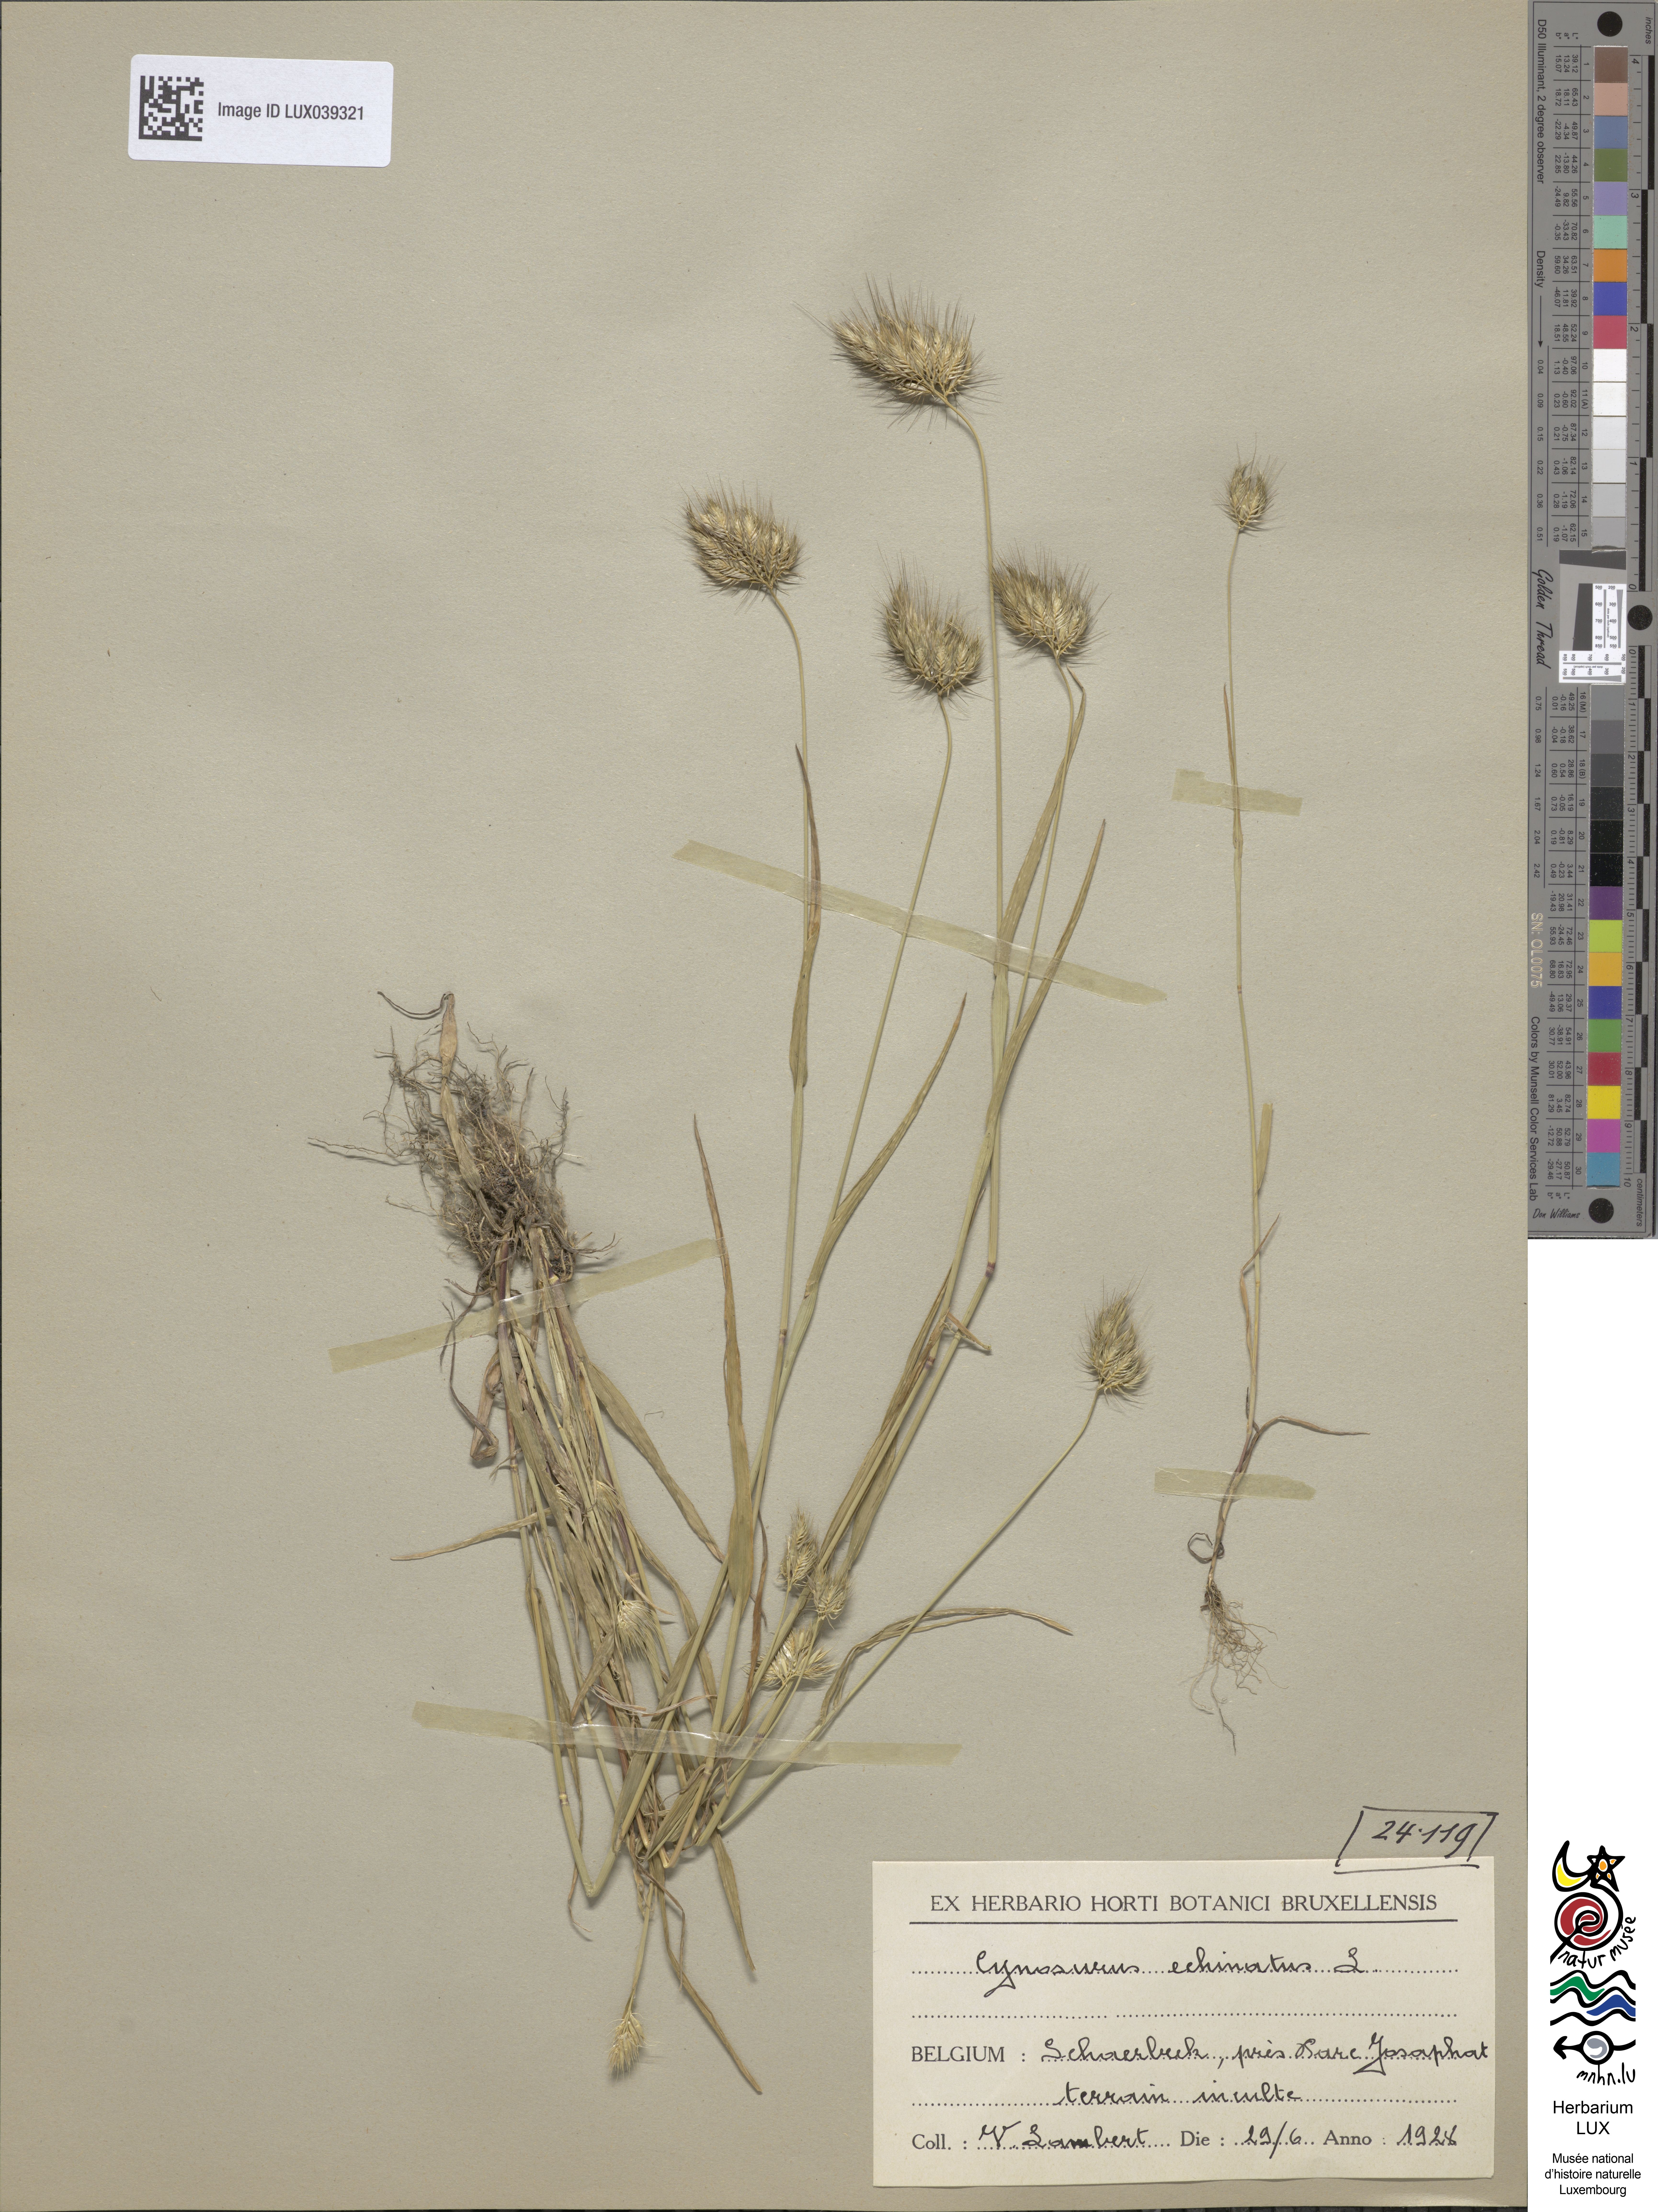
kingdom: Plantae
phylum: Tracheophyta
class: Liliopsida
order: Poales
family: Poaceae
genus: Cynosurus
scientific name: Cynosurus echinatus
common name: Rough dog's-tail
